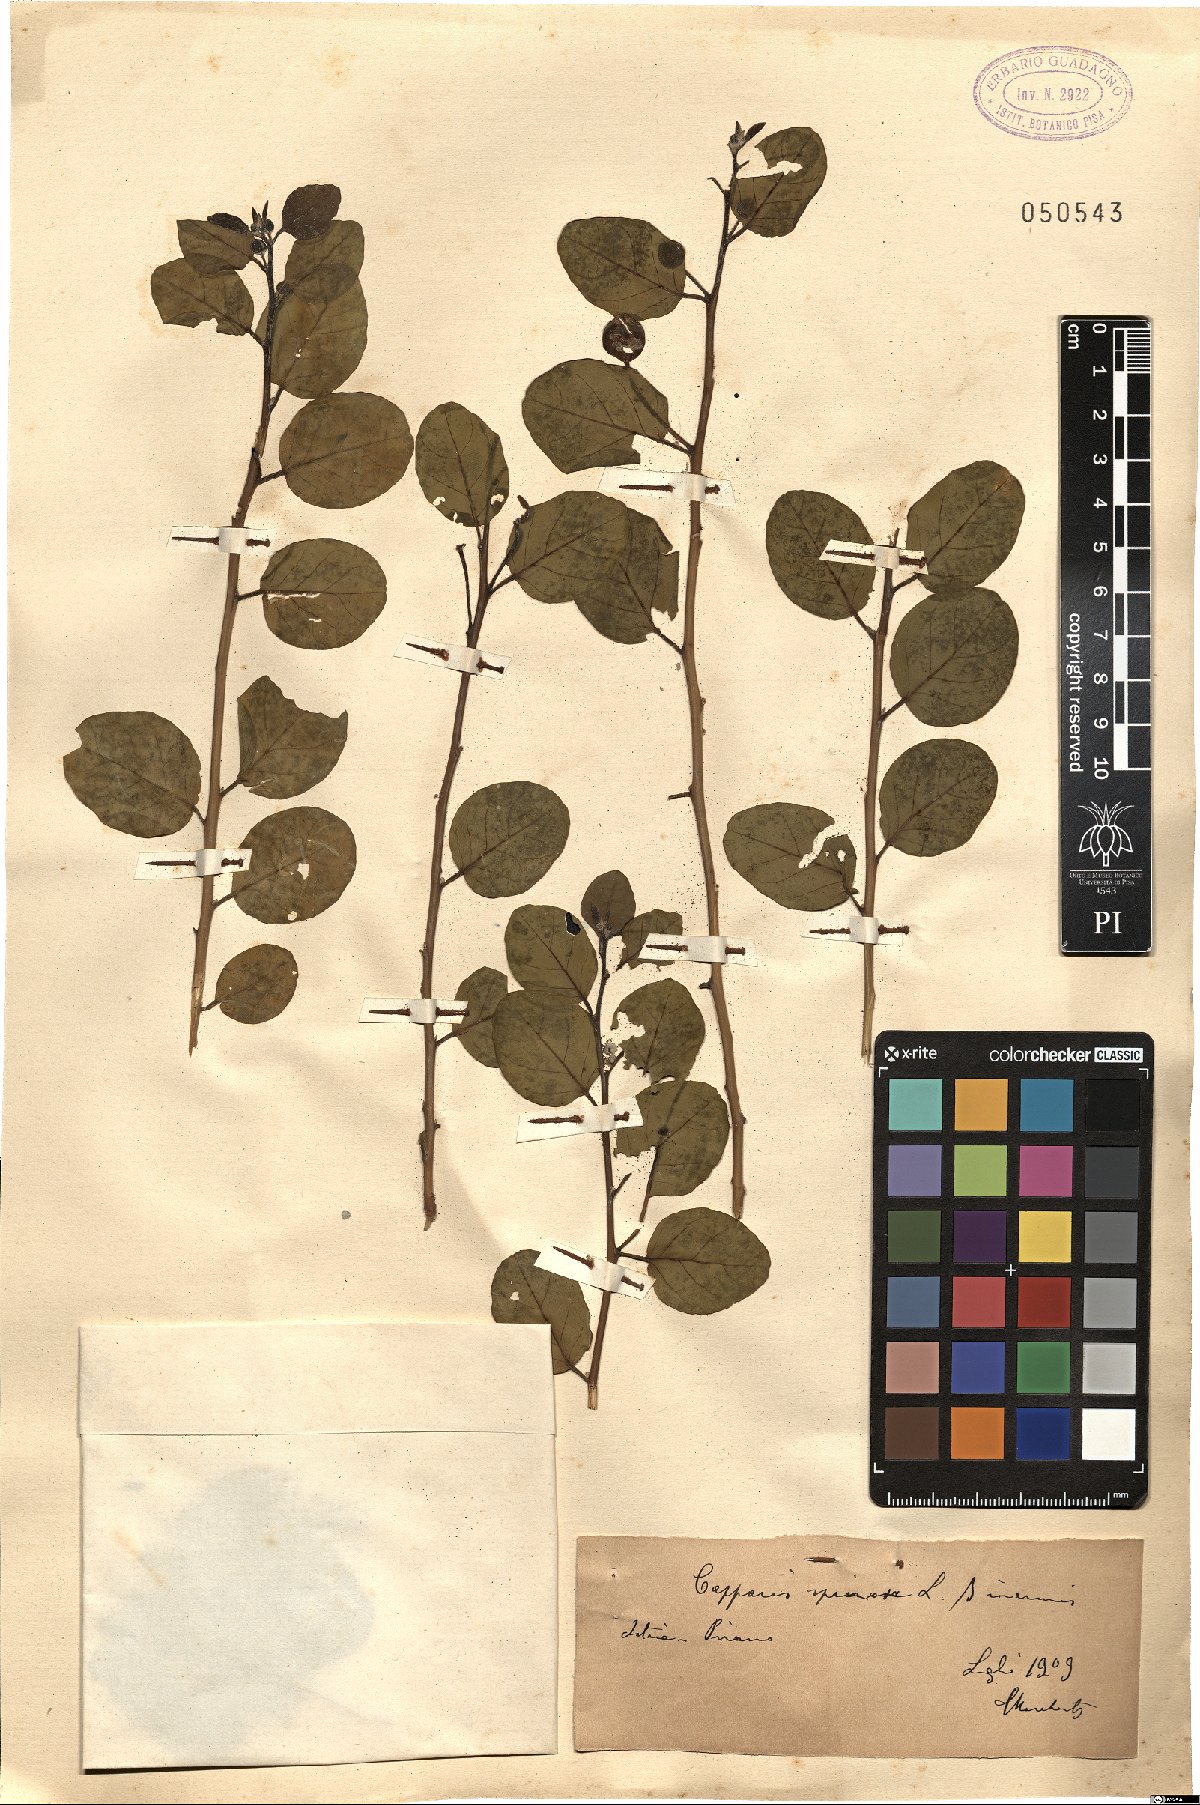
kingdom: Plantae
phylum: Tracheophyta
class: Magnoliopsida
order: Brassicales
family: Capparaceae
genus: Capparis
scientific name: Capparis spinosa
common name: Caper
